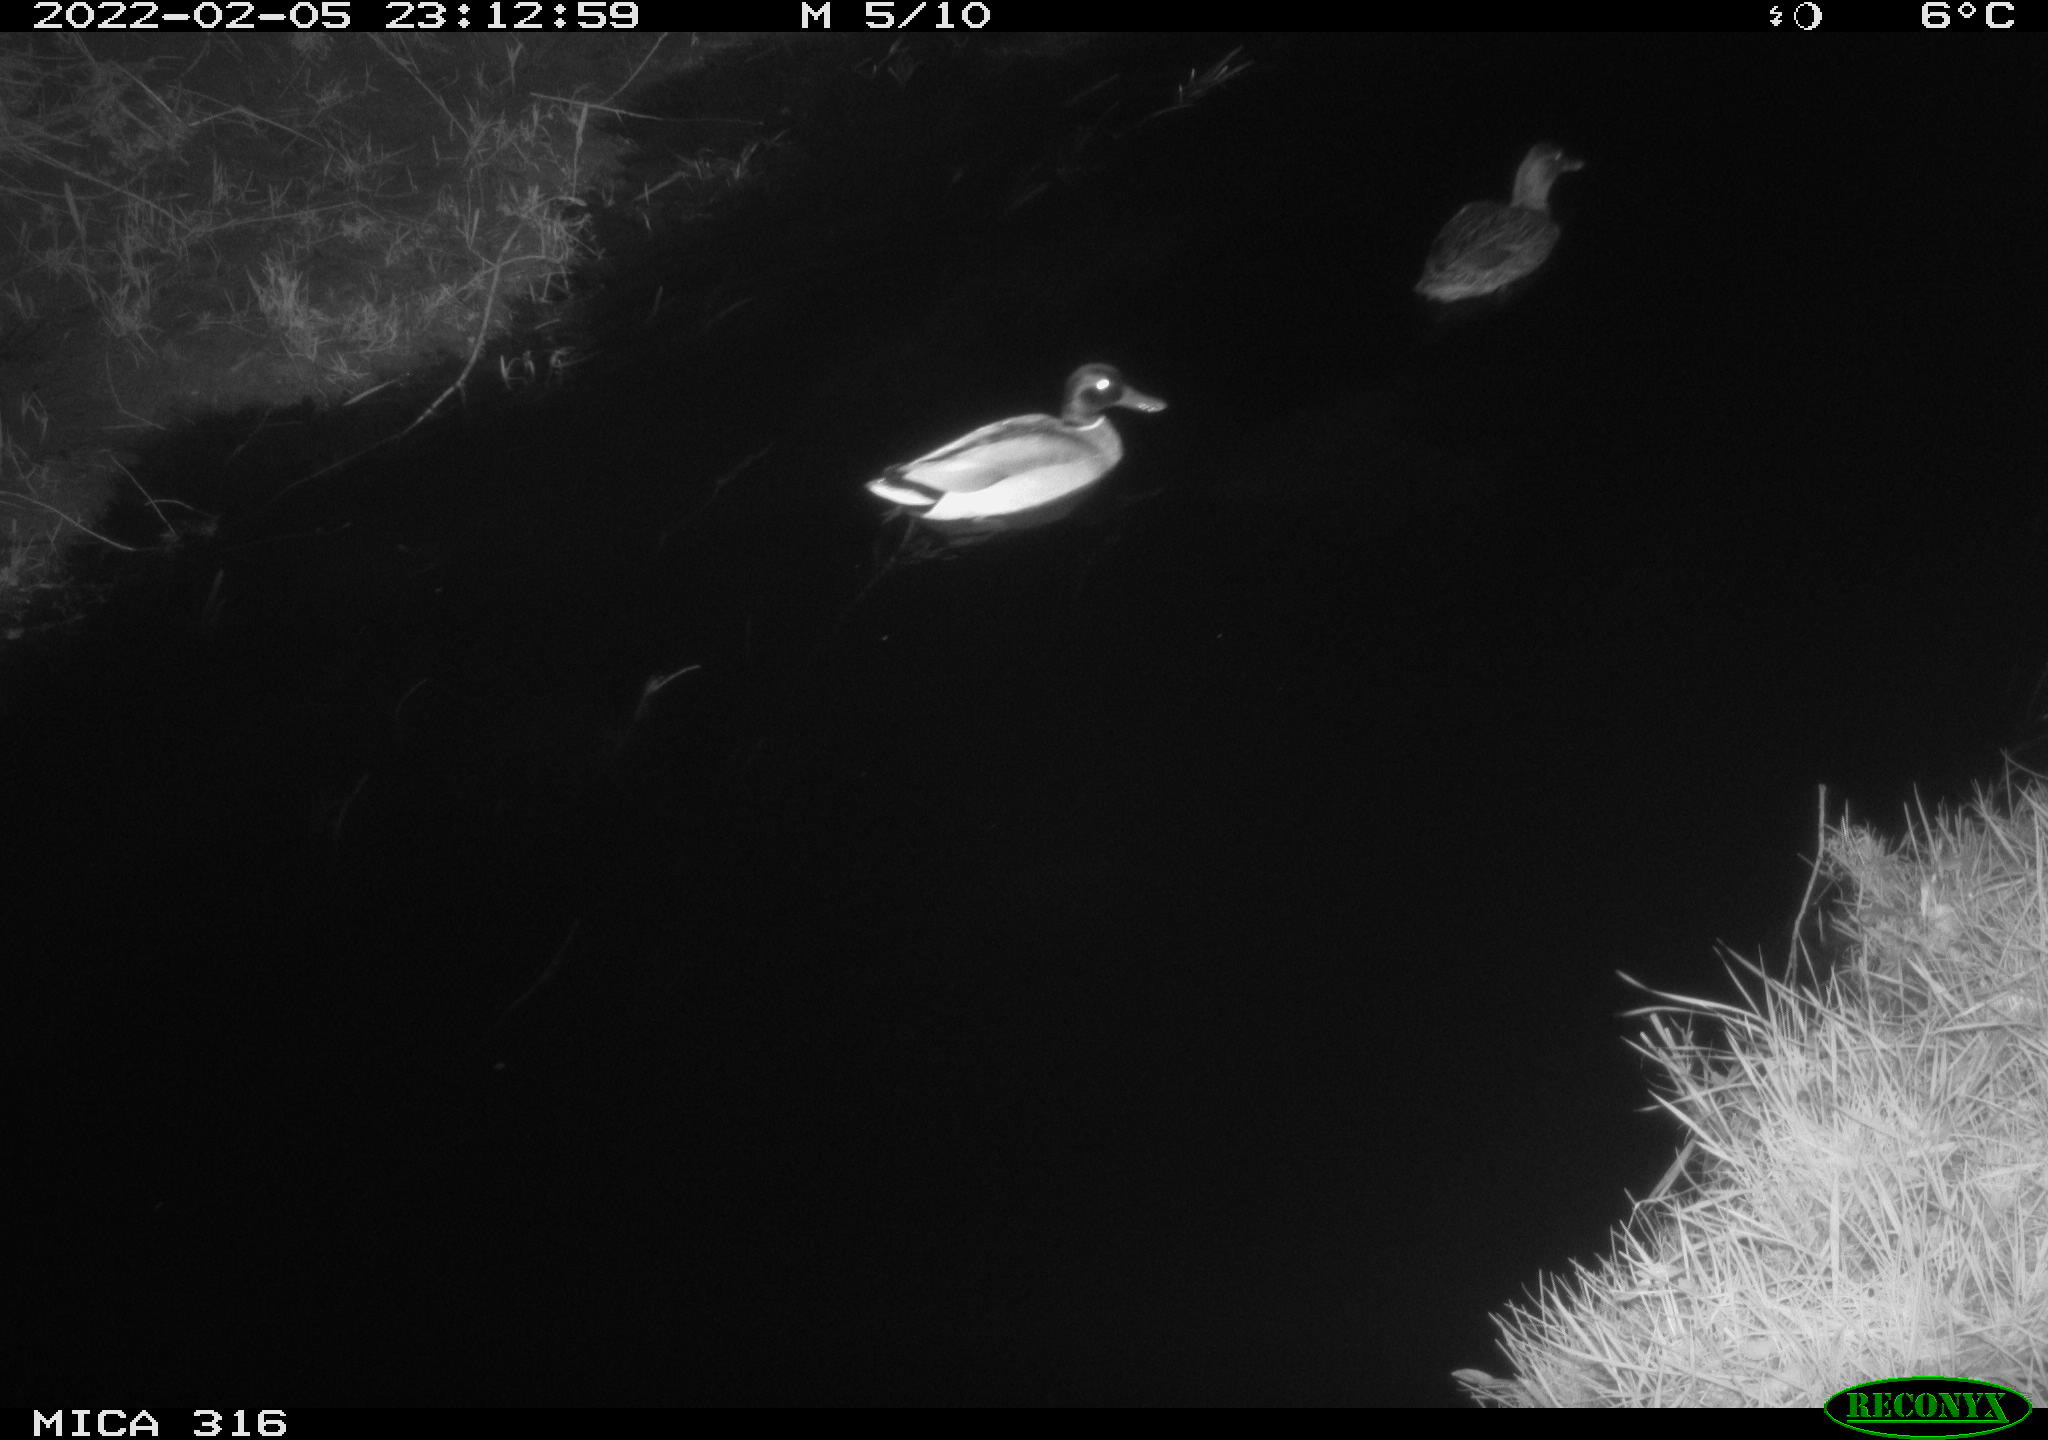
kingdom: Animalia
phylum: Chordata
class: Aves
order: Anseriformes
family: Anatidae
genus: Anas
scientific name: Anas platyrhynchos
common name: Mallard
